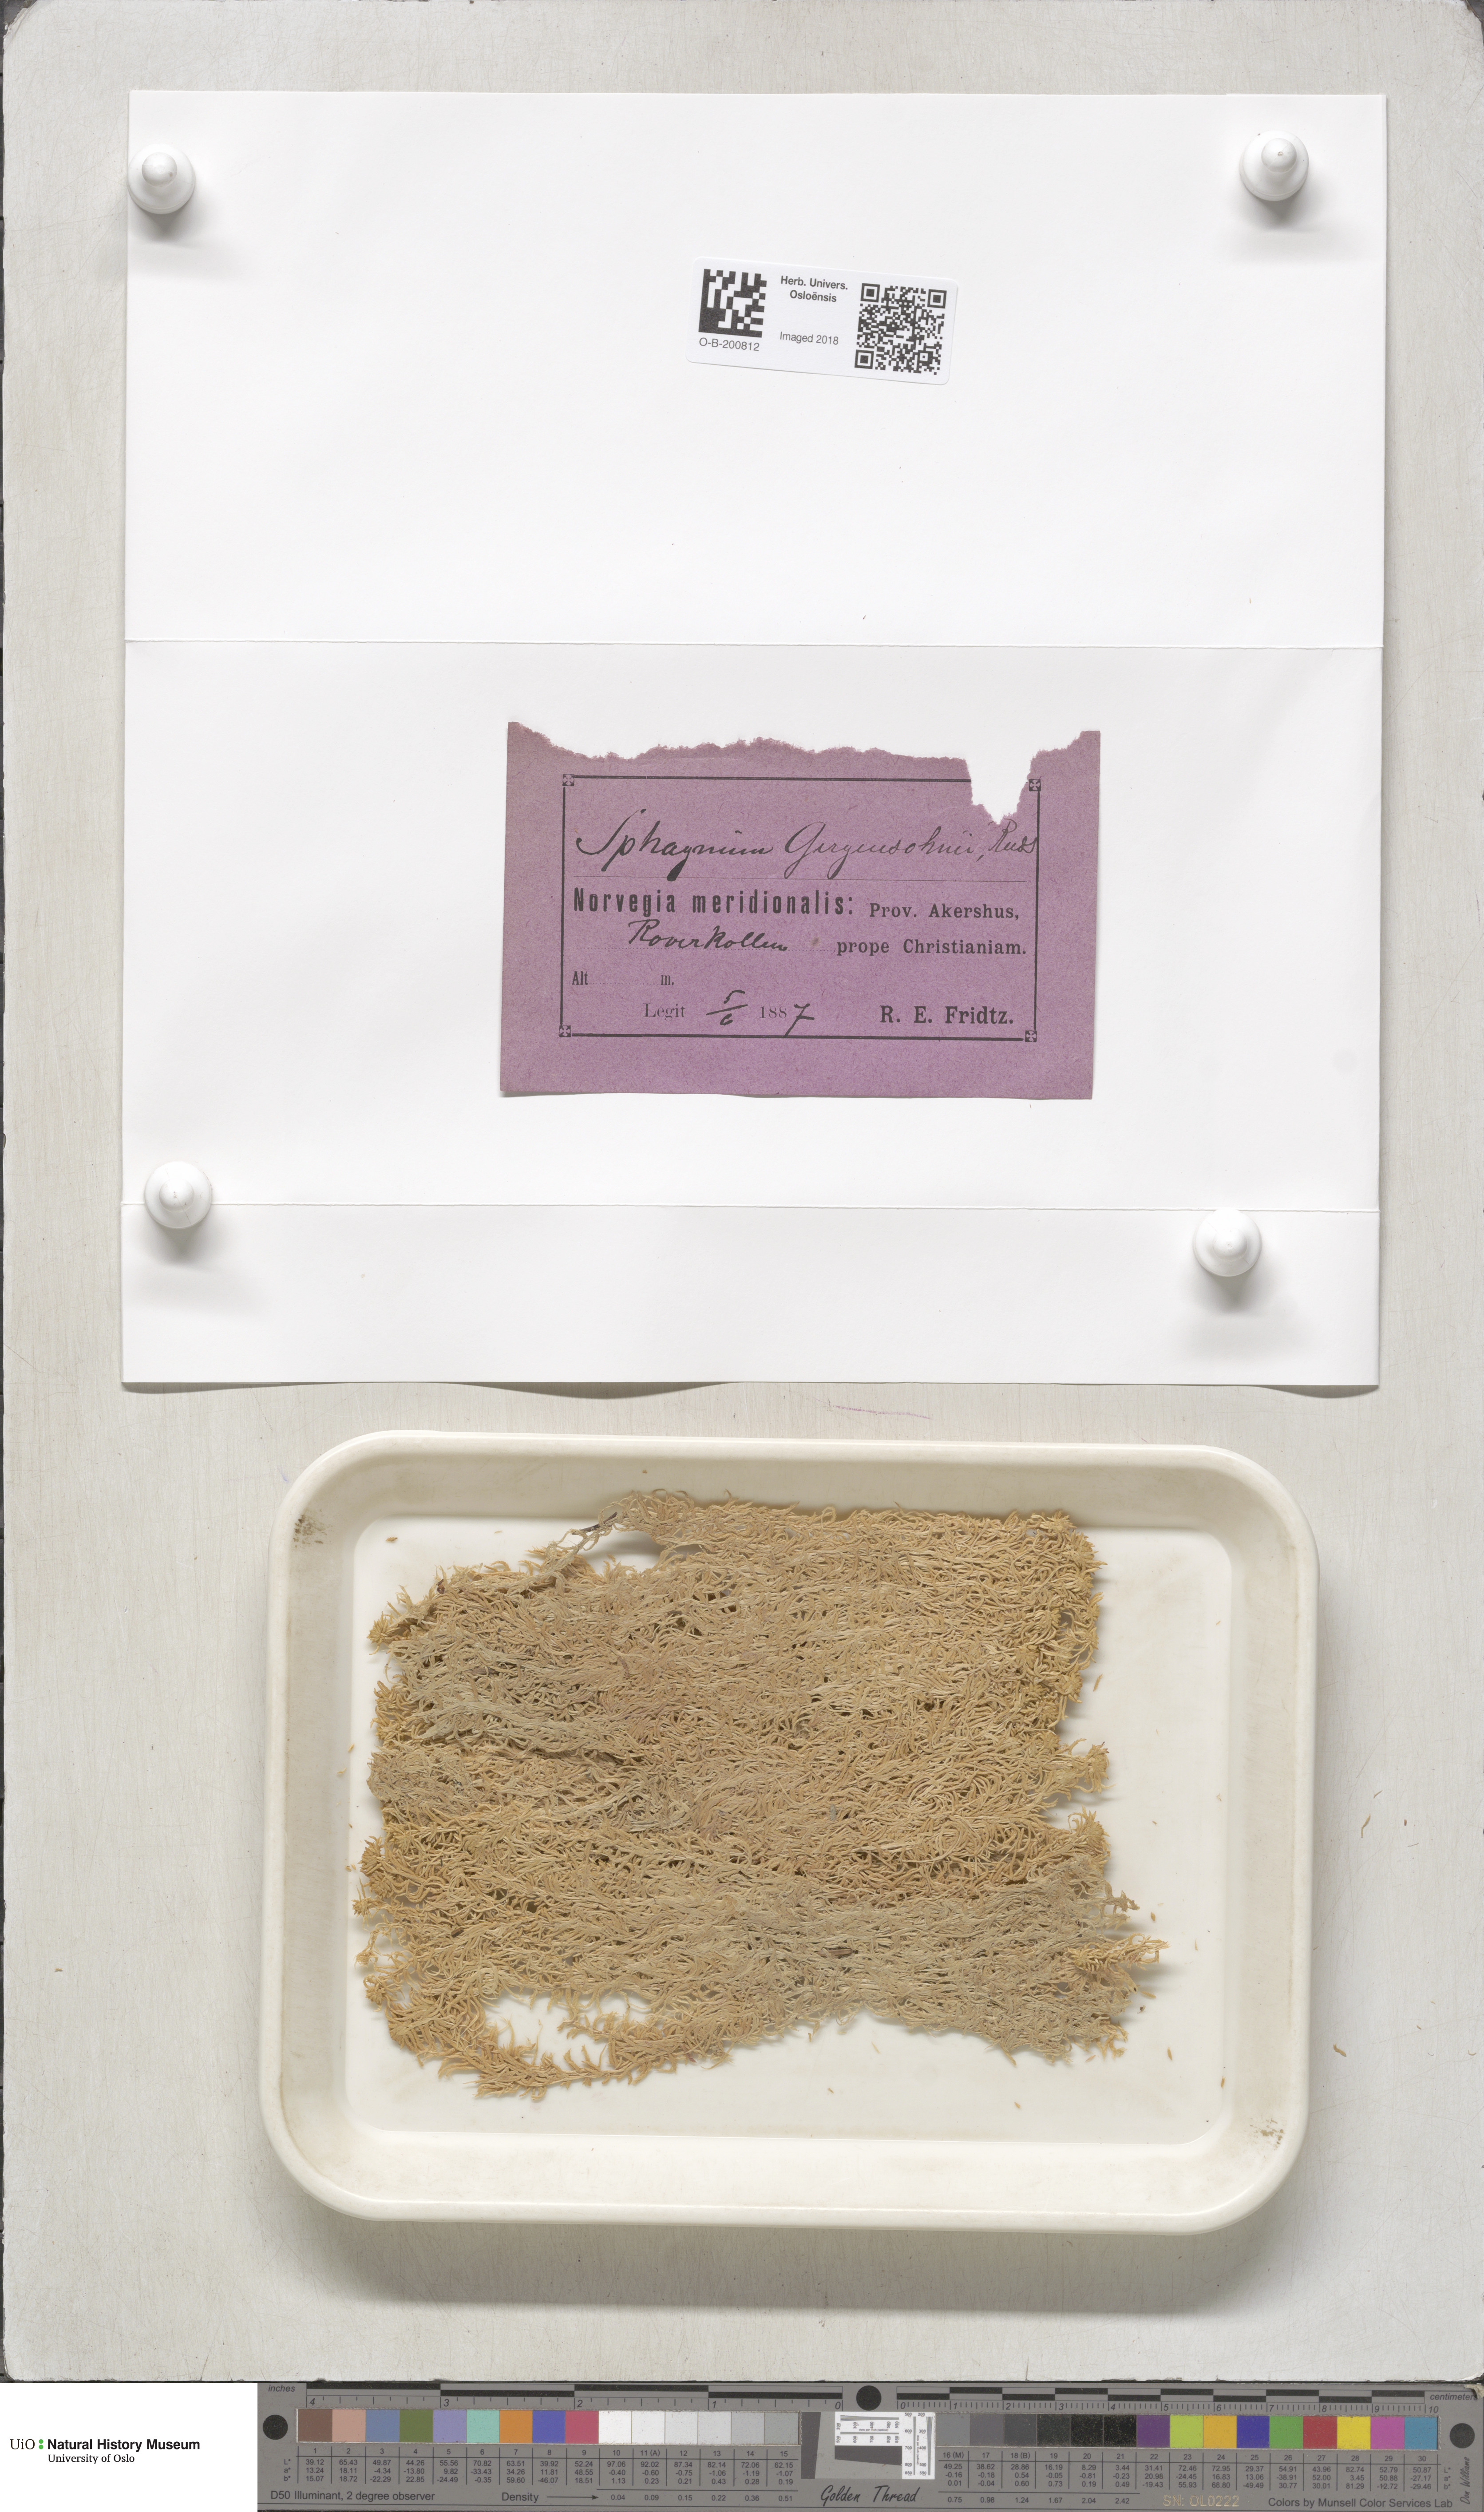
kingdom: Plantae
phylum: Bryophyta
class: Sphagnopsida
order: Sphagnales
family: Sphagnaceae
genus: Sphagnum
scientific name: Sphagnum girgensohnii
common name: Girgensohn's peat moss
